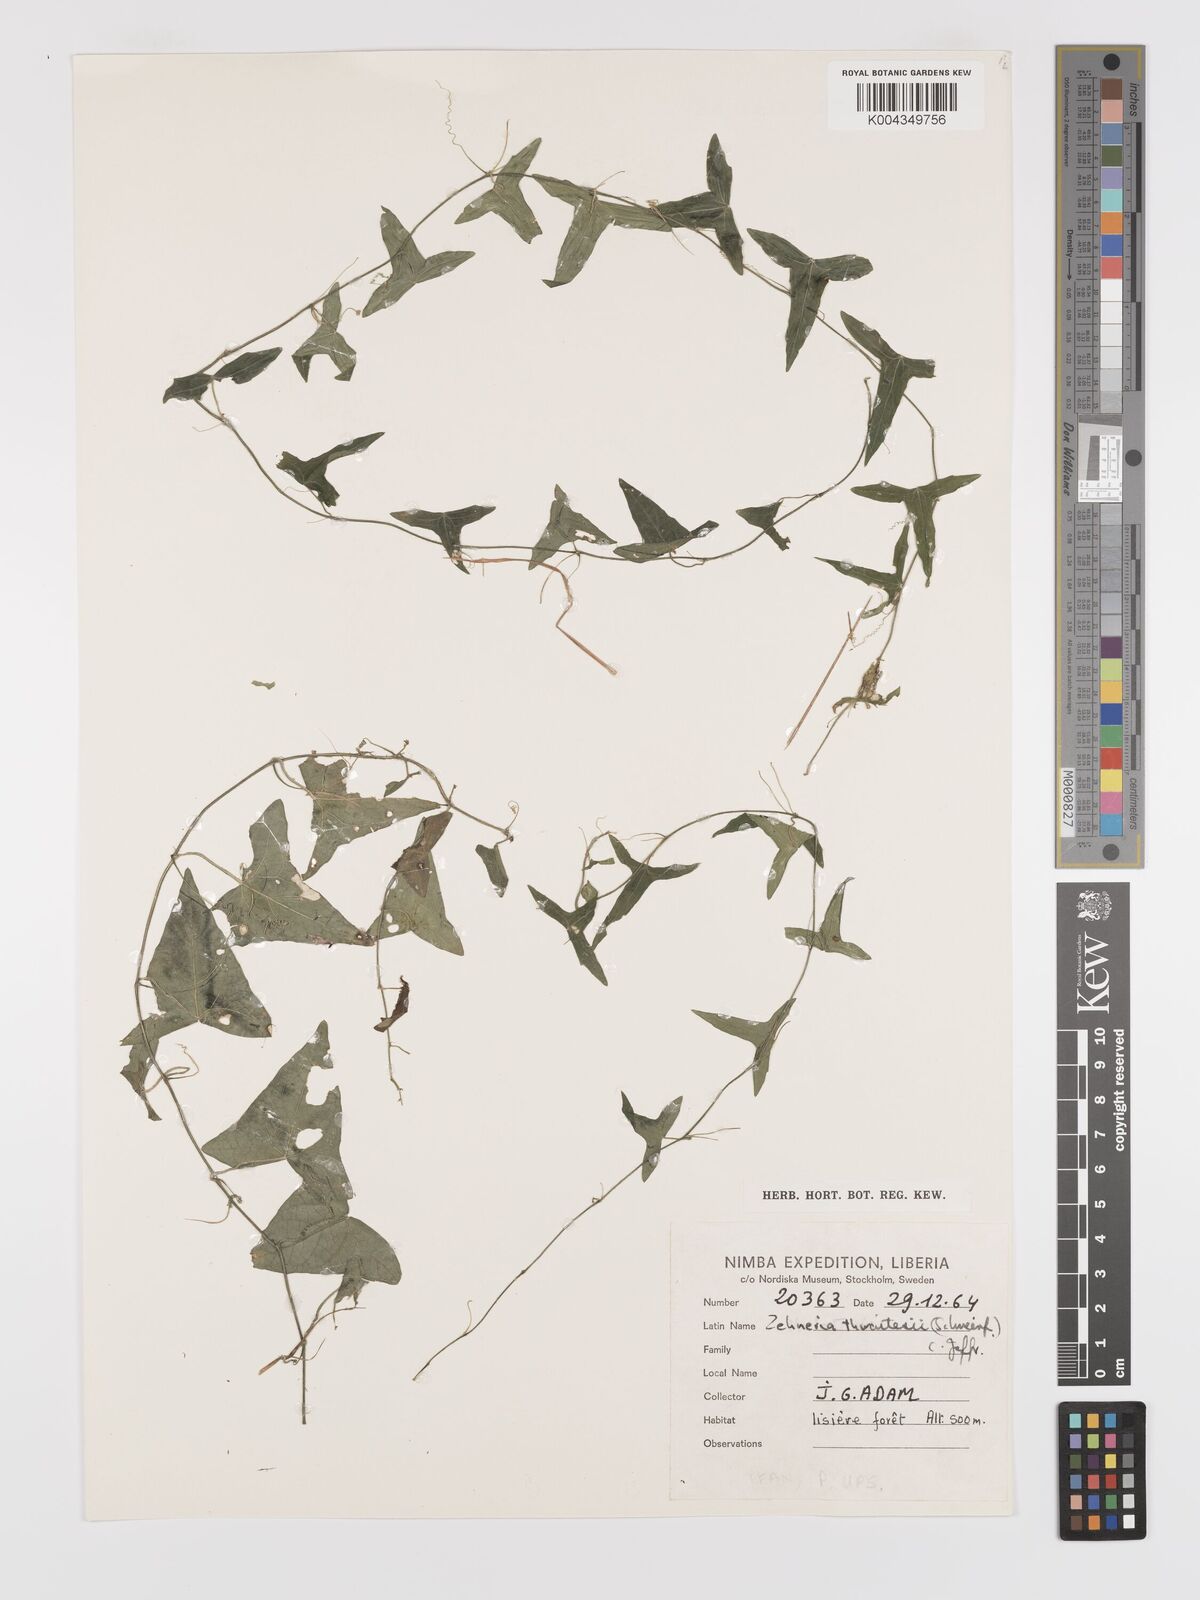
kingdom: Plantae
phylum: Tracheophyta
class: Magnoliopsida
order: Cucurbitales
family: Cucurbitaceae
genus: Zehneria
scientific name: Zehneria thwaitesii
